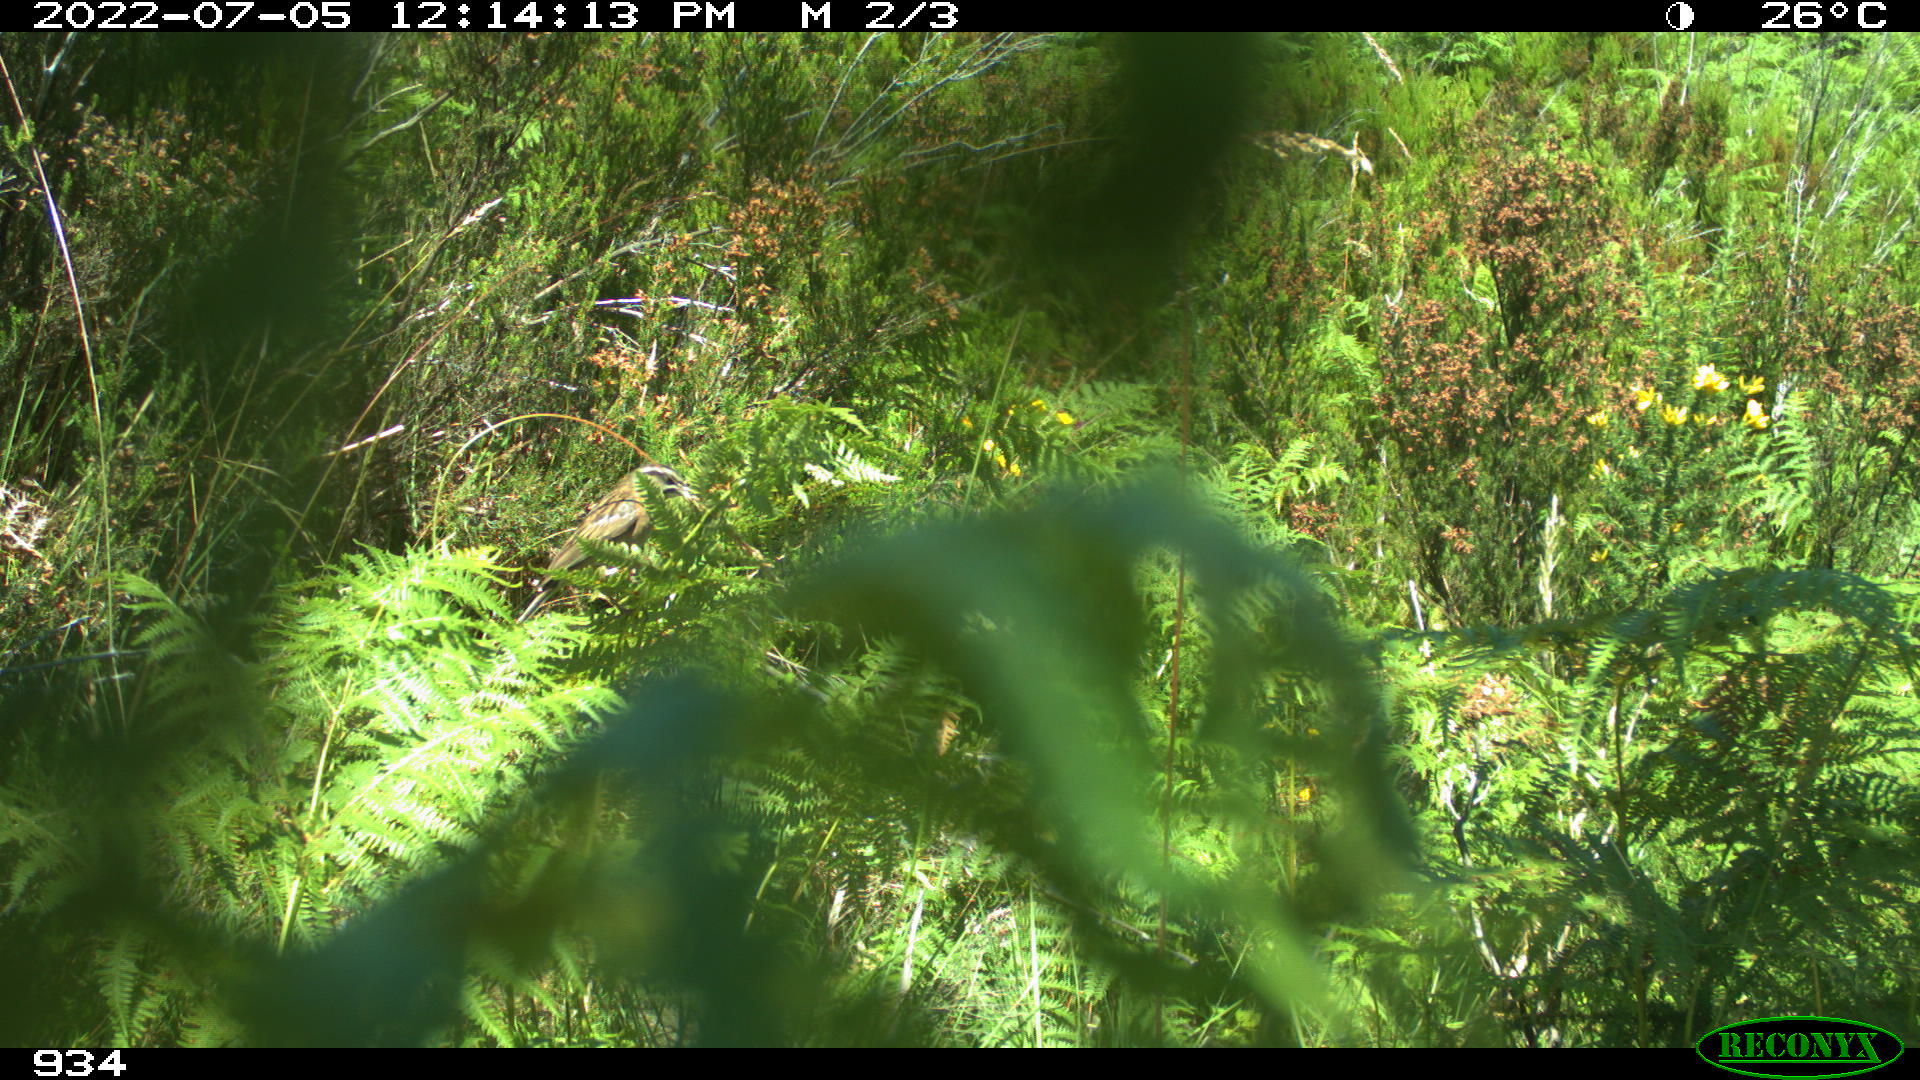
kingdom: Animalia
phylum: Chordata
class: Aves
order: Passeriformes
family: Emberizidae
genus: Emberiza
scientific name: Emberiza cia
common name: Rock bunting
